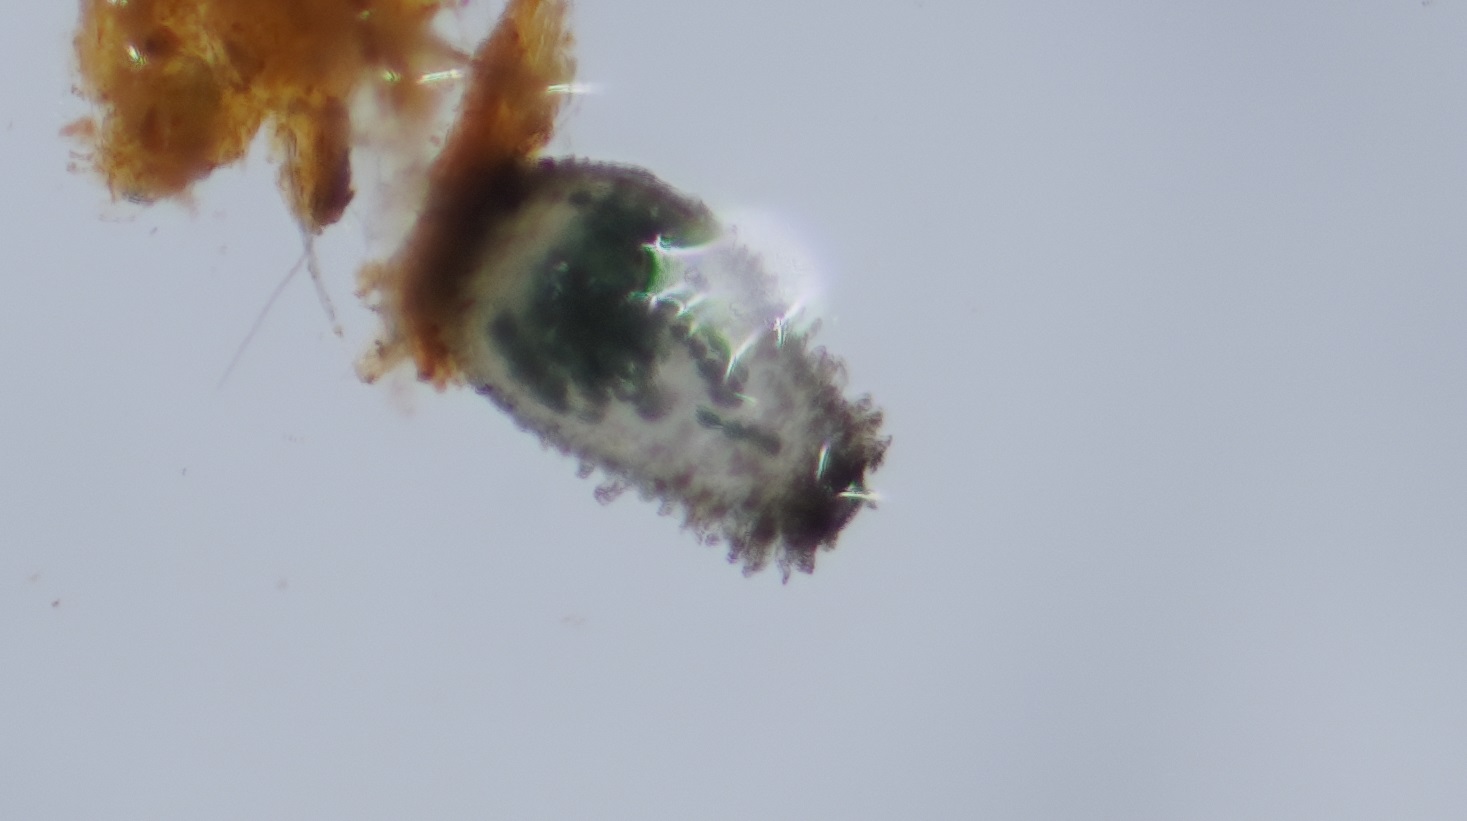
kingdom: Fungi
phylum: Ascomycota
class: Sordariomycetes
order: Sordariales
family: Neoschizotheciaceae
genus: Neoschizothecium
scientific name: Neoschizothecium tetrasporum
